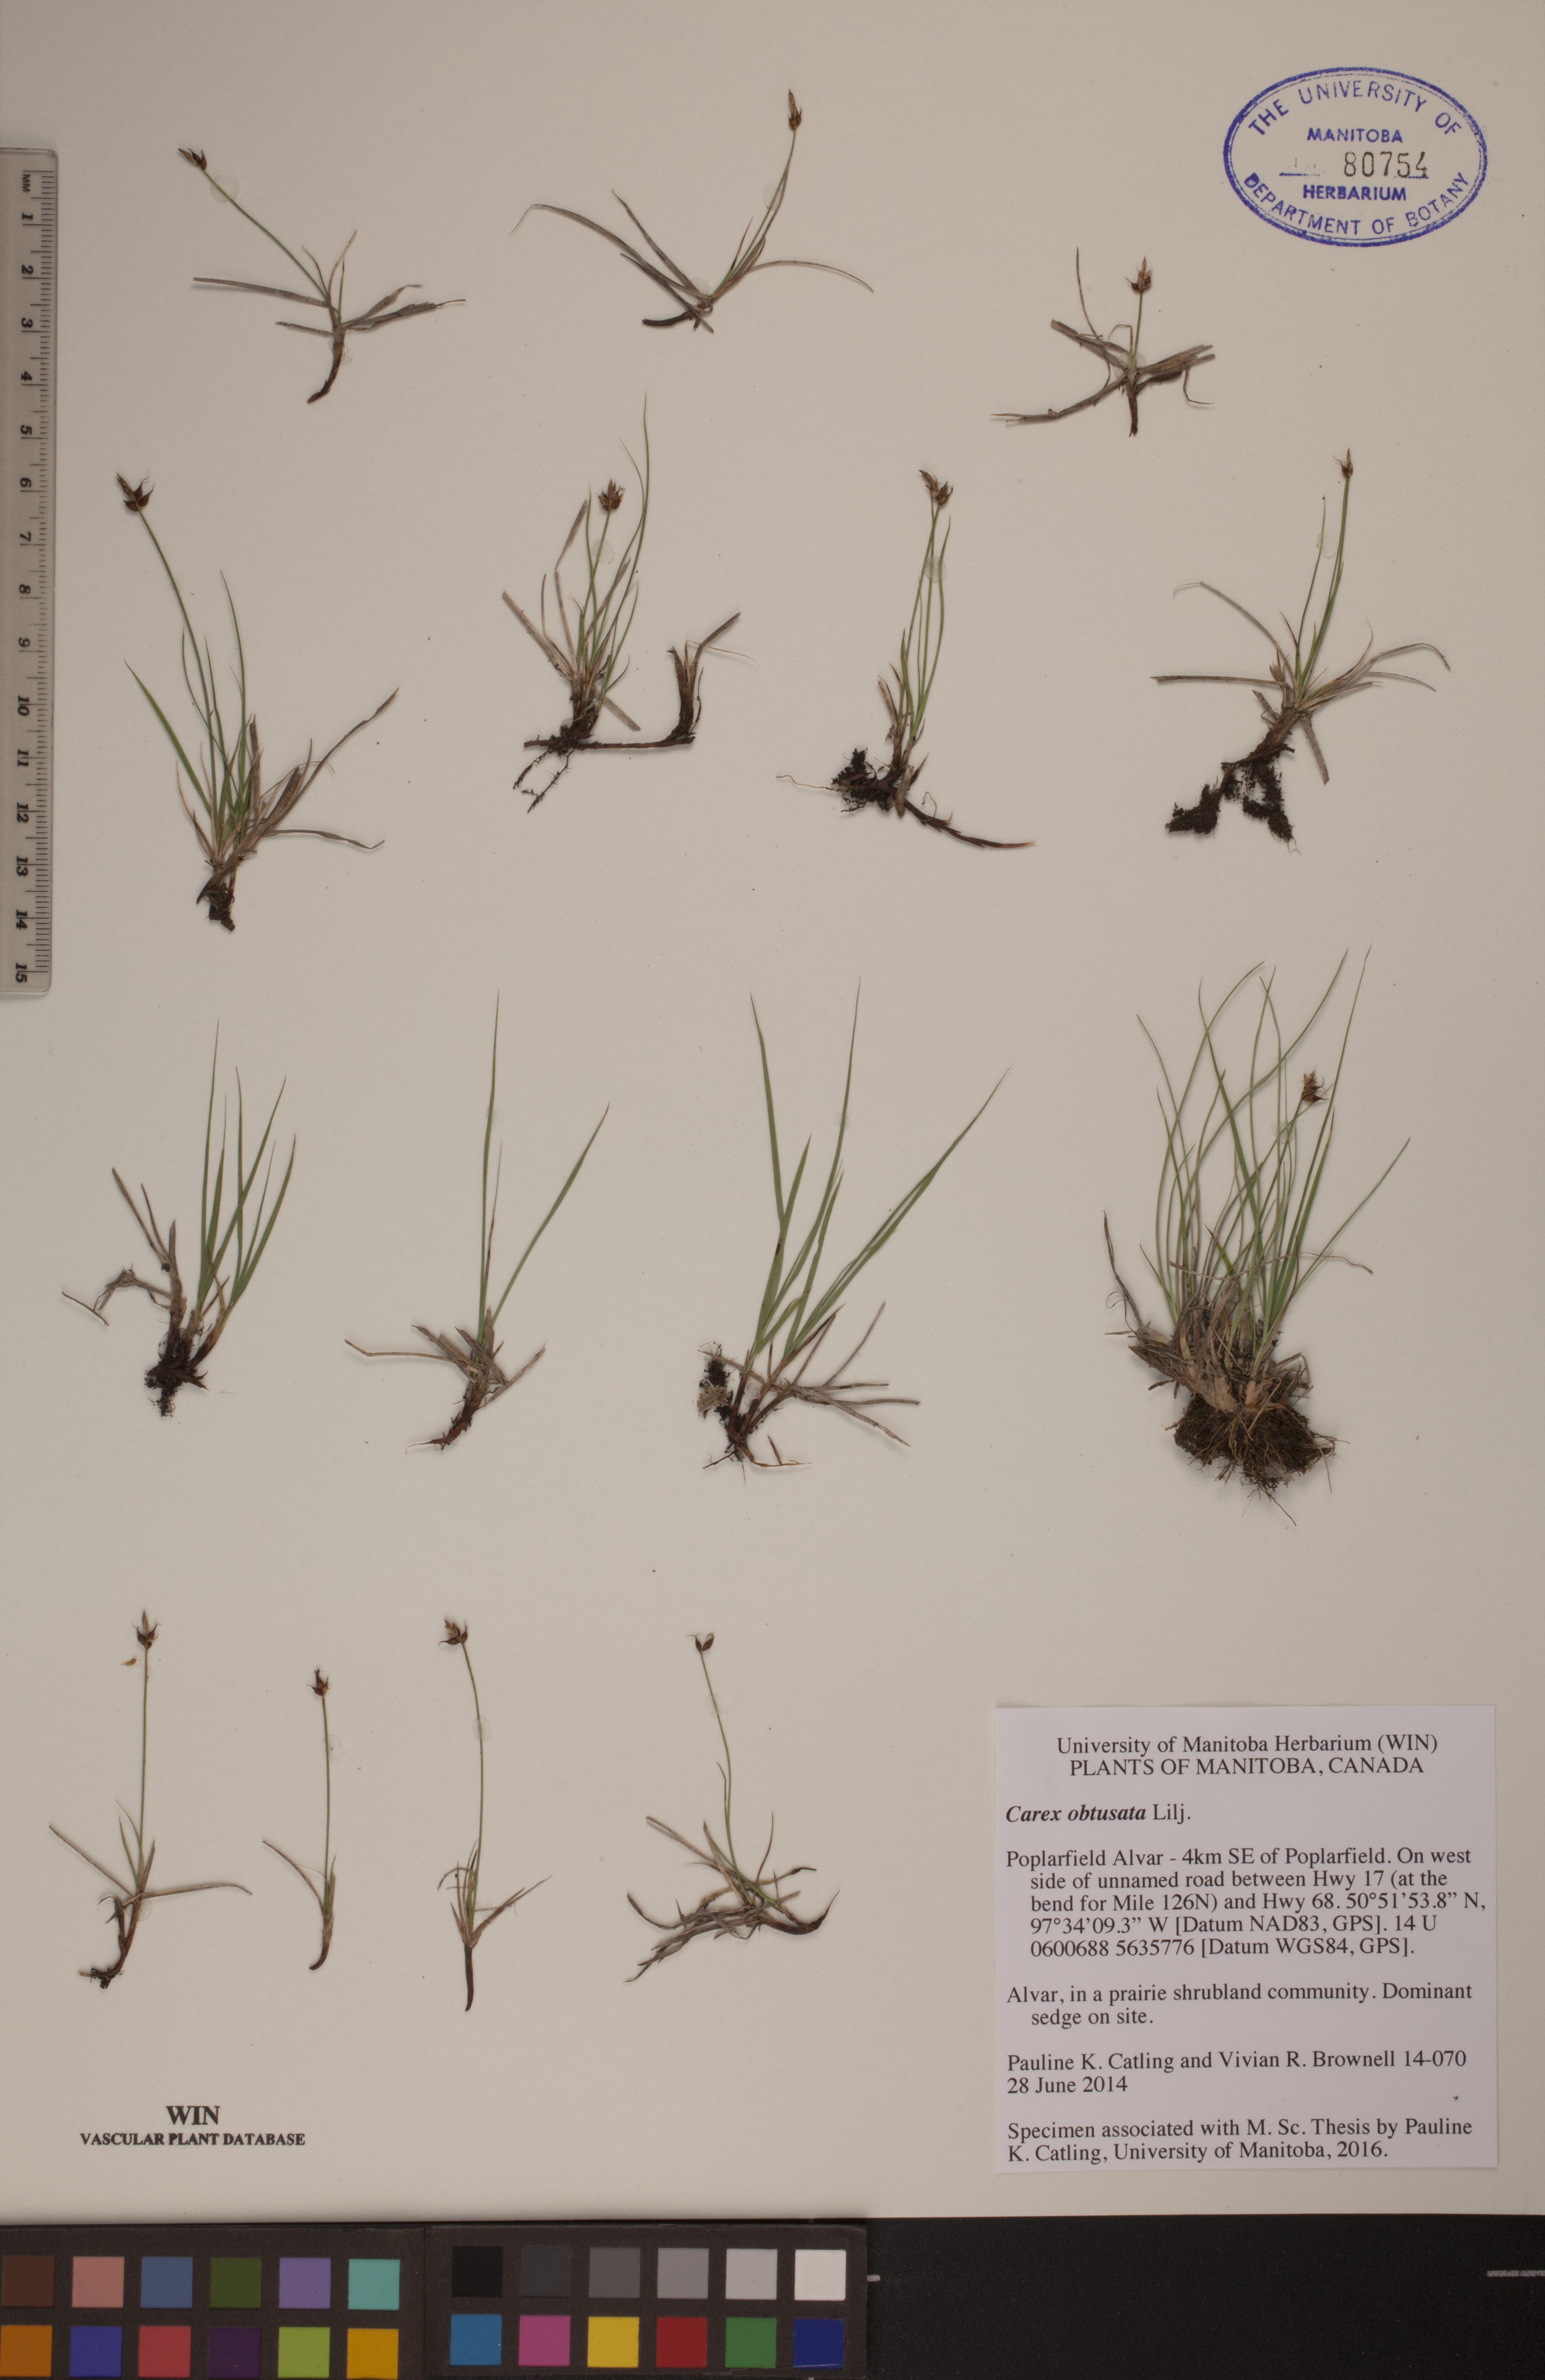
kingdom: Plantae
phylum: Tracheophyta
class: Liliopsida
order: Poales
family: Cyperaceae
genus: Carex
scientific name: Carex obtusata
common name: Blunt sedge
